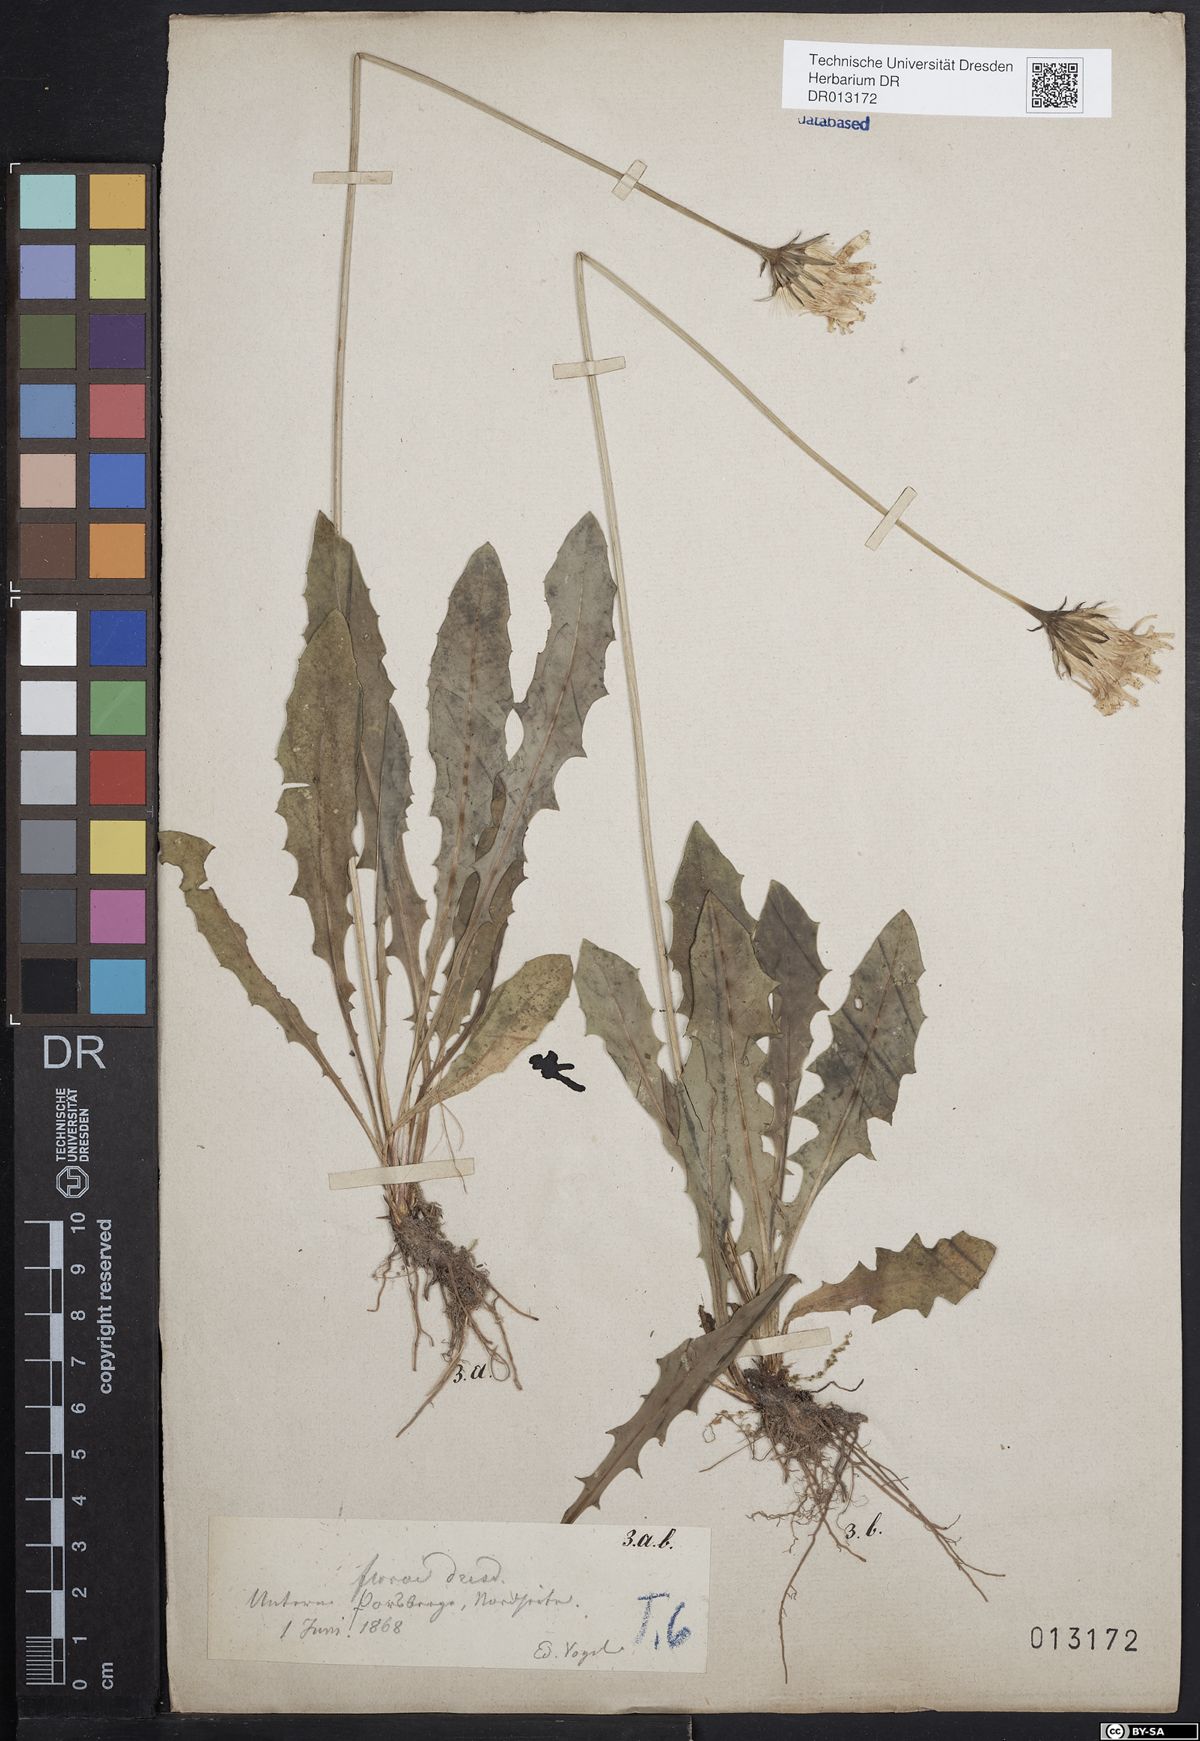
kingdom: Plantae
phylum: Tracheophyta
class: Magnoliopsida
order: Asterales
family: Asteraceae
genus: Leontodon
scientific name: Leontodon hispidus
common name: Rough hawkbit
